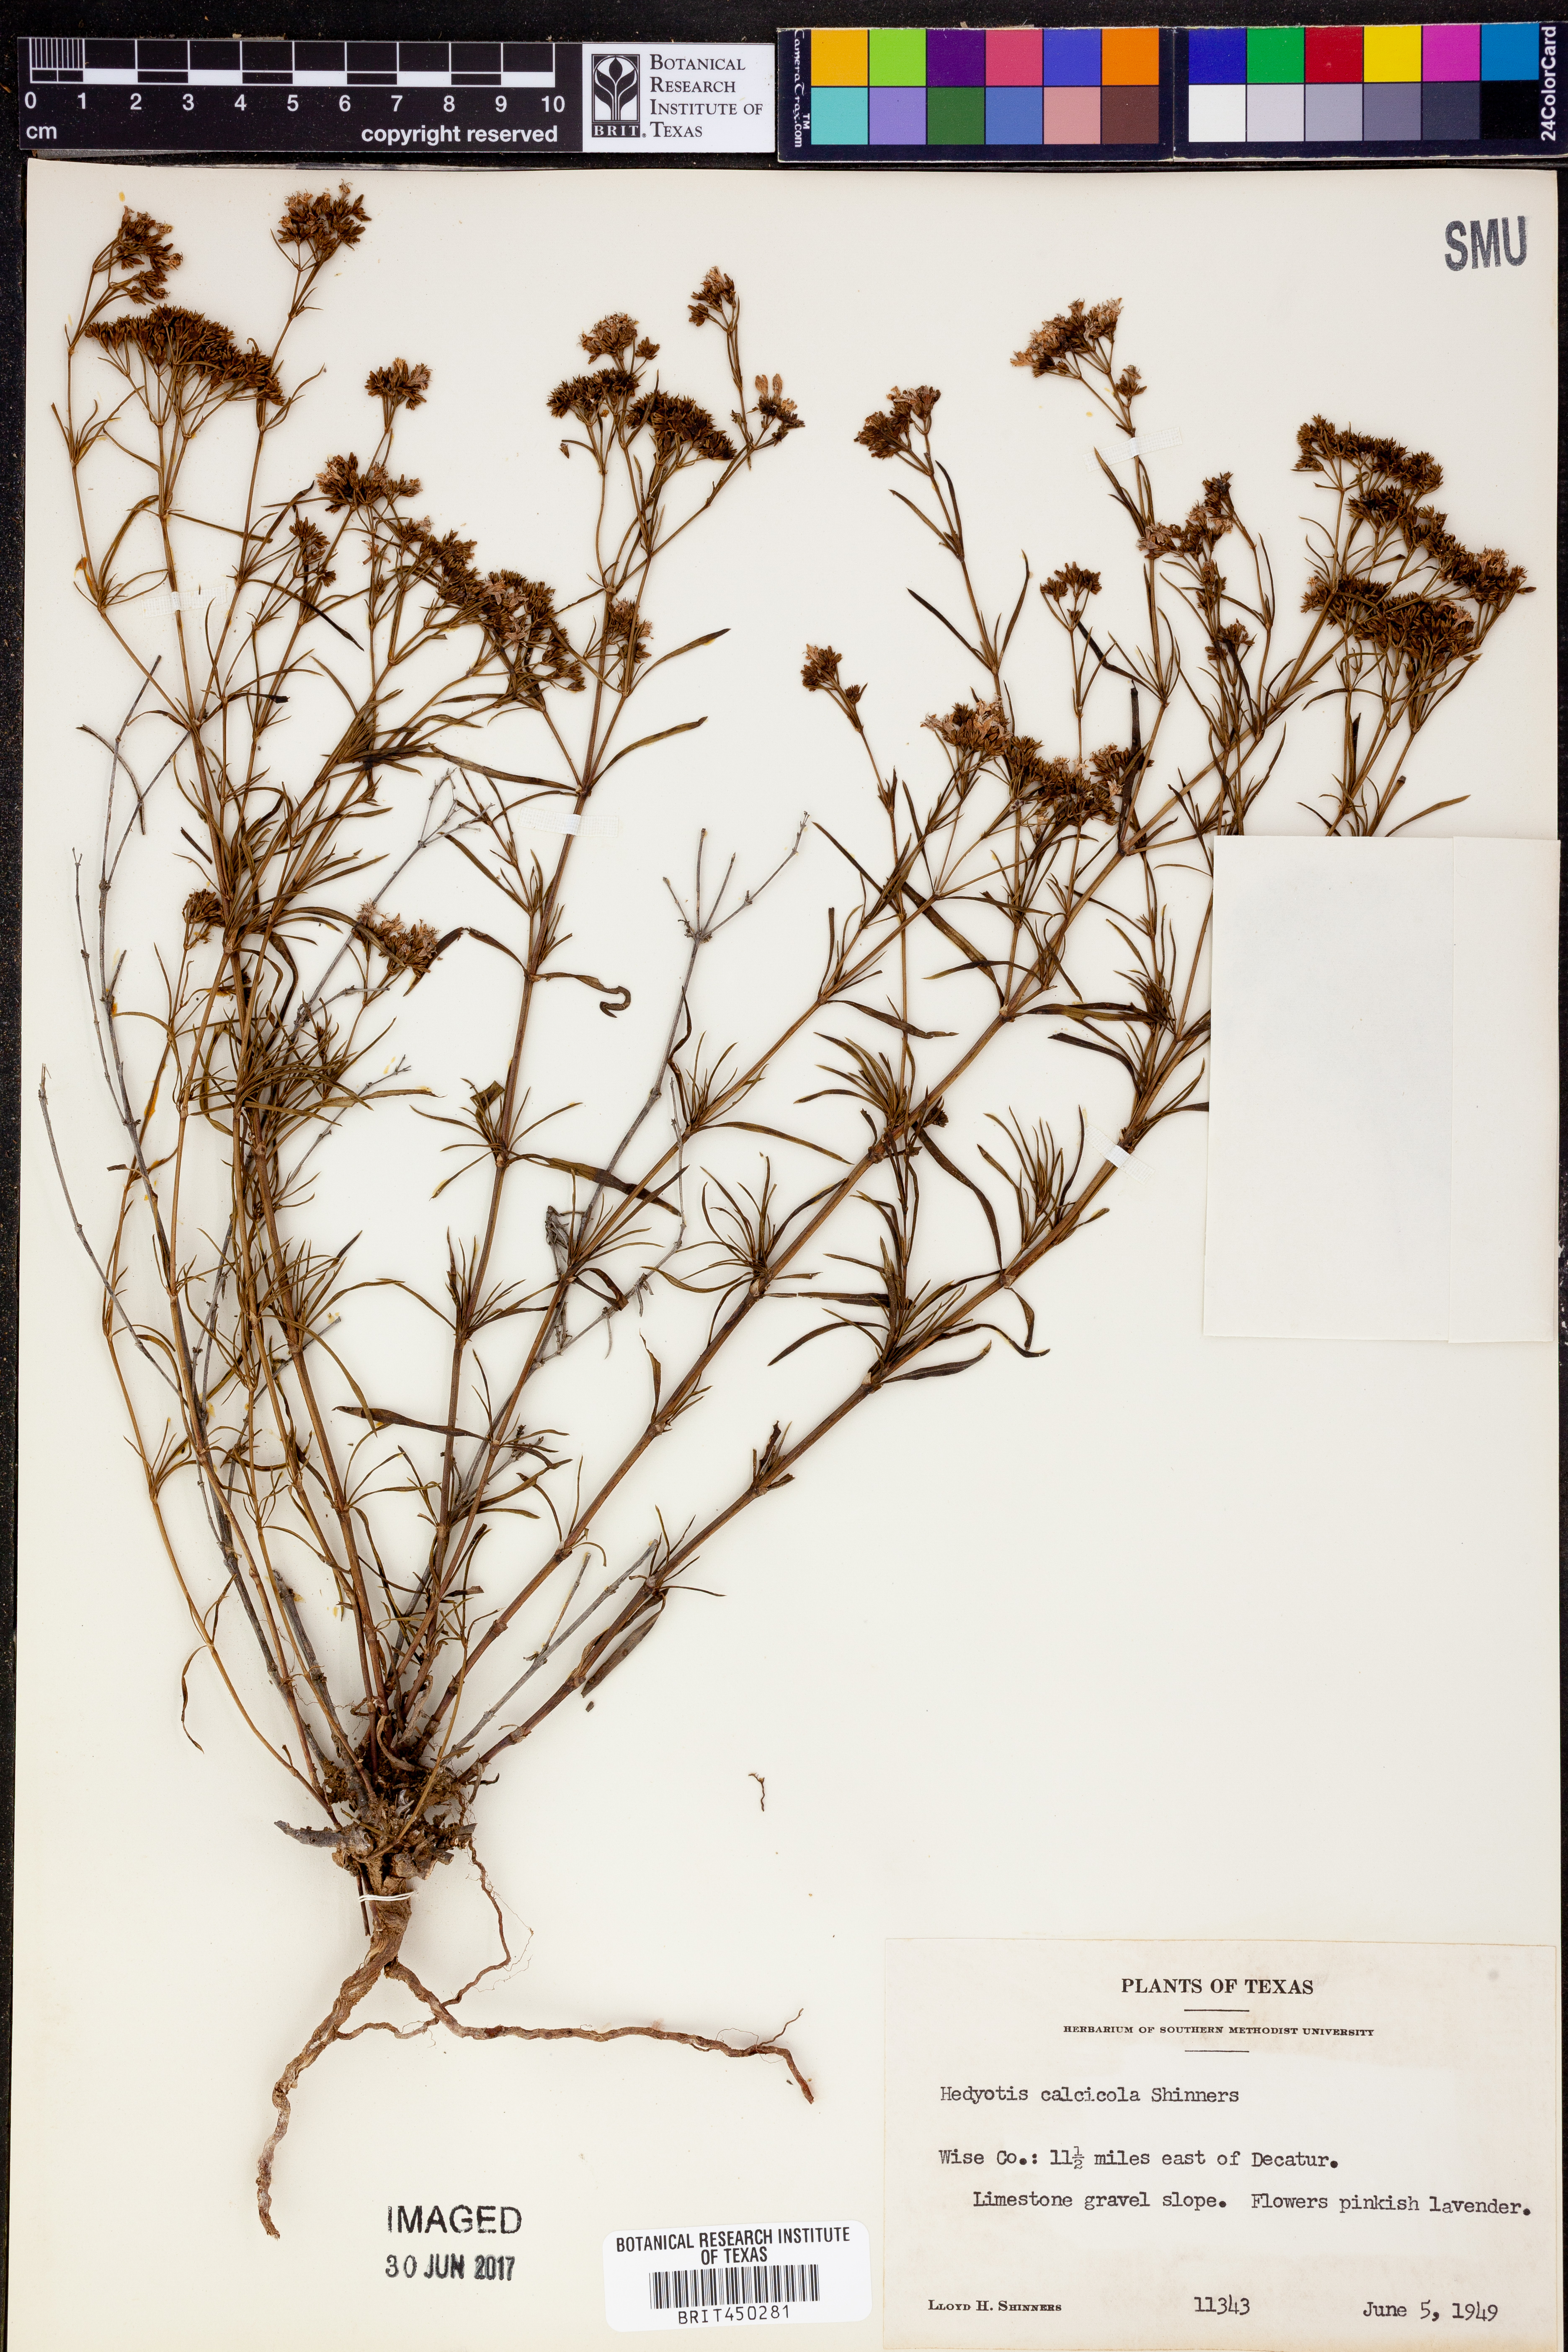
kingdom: Plantae
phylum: Tracheophyta
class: Magnoliopsida
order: Gentianales
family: Rubiaceae
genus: Houstonia
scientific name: Houstonia purpurea
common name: Summer bluet
